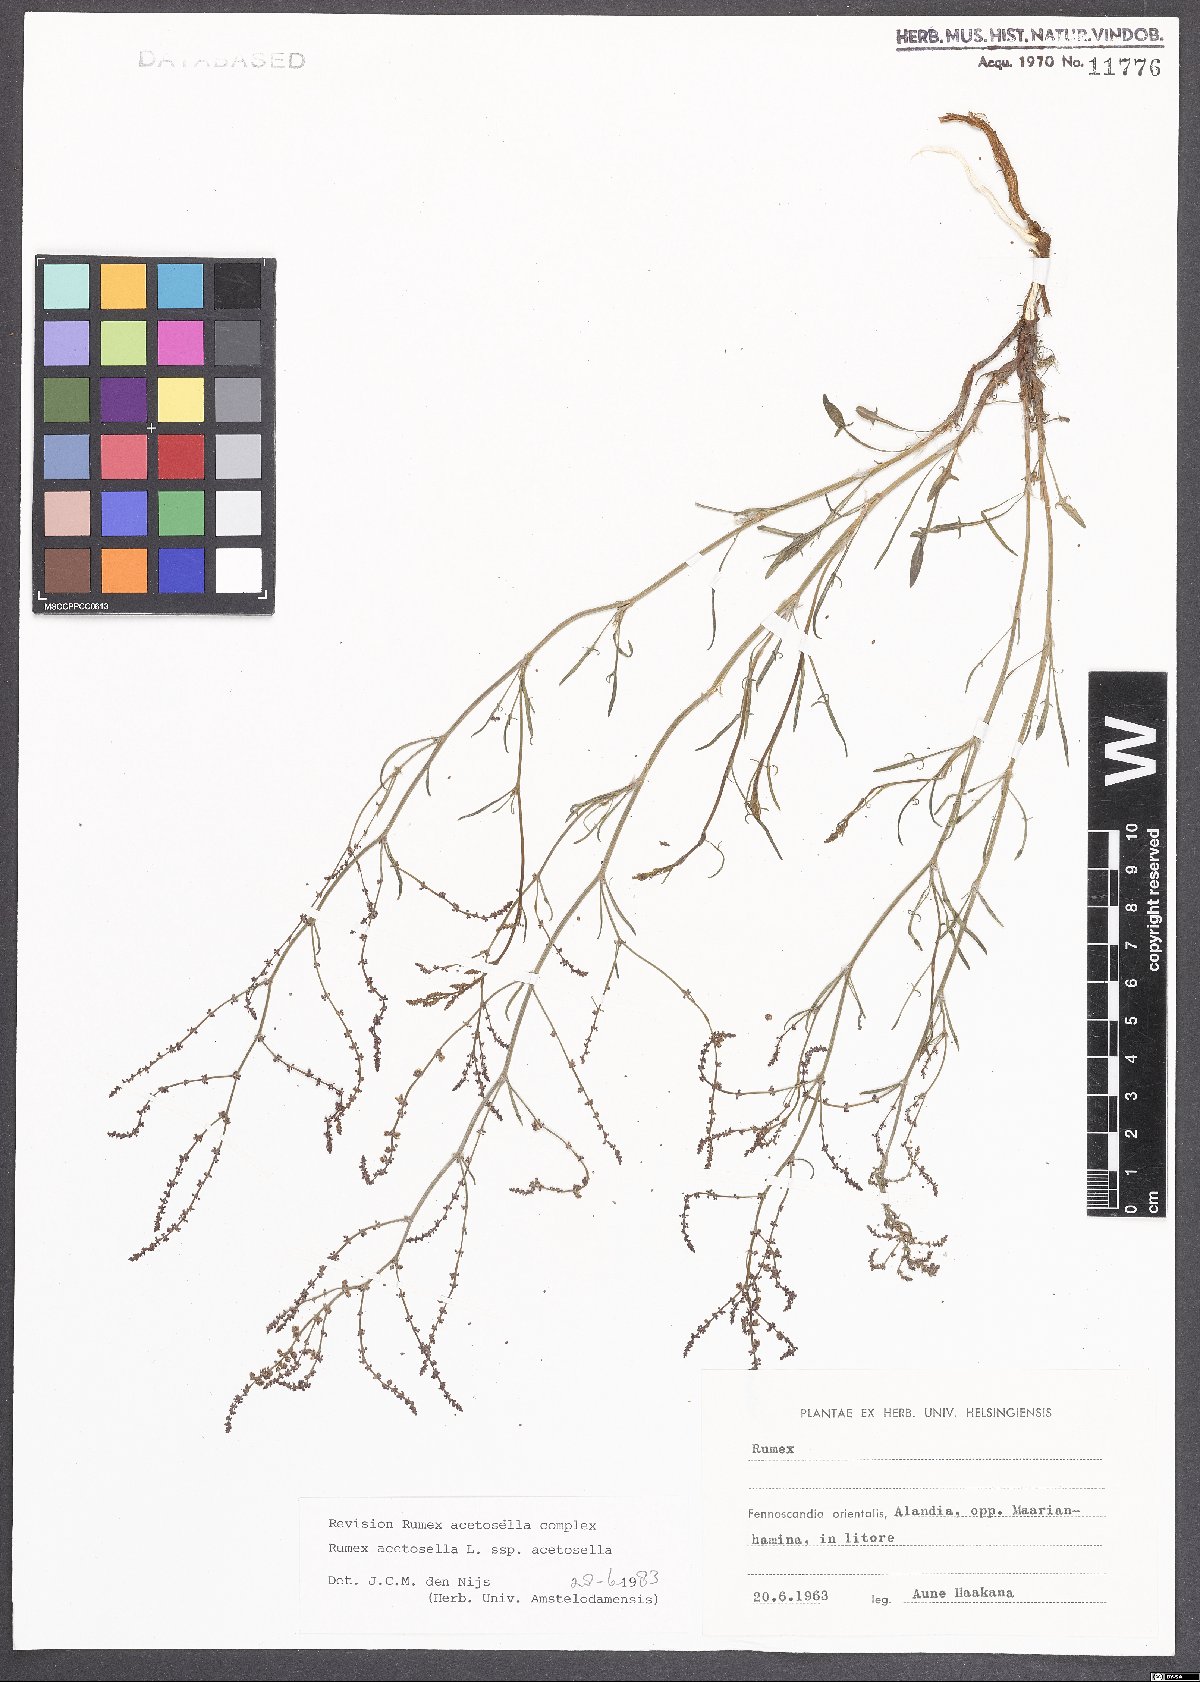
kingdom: Plantae
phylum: Tracheophyta
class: Magnoliopsida
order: Caryophyllales
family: Polygonaceae
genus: Rumex
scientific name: Rumex acetosella
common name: Common sheep sorrel
